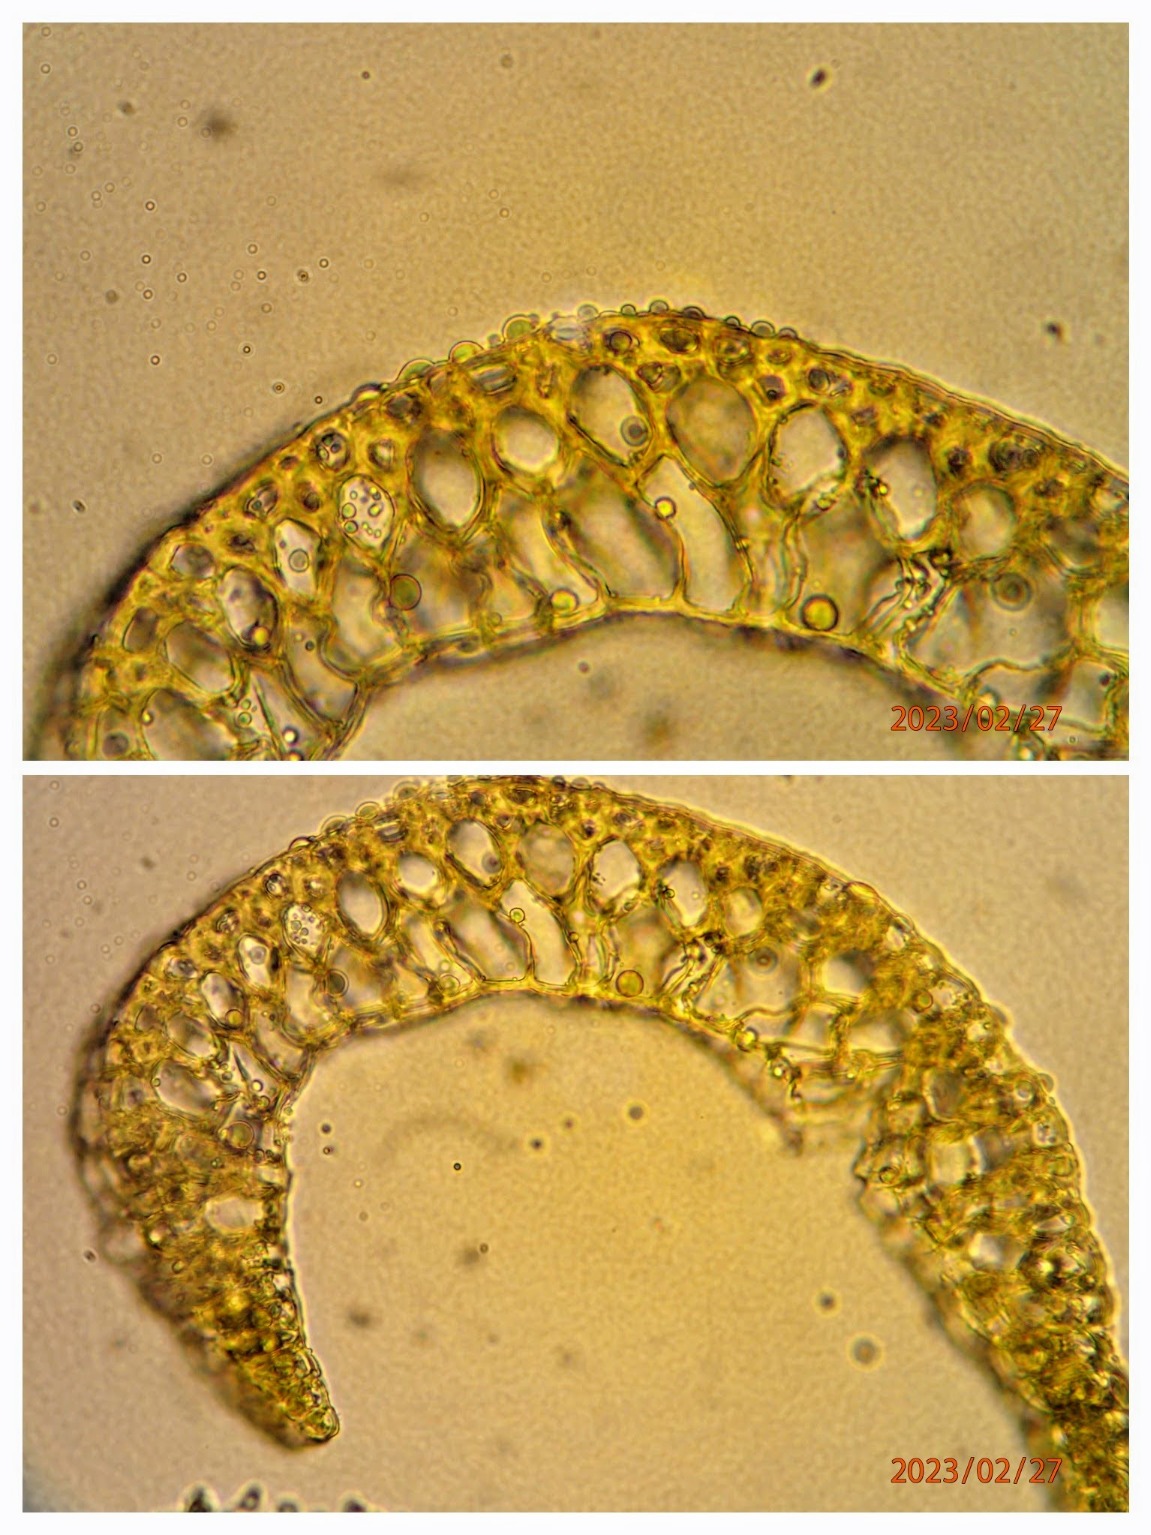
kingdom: Plantae
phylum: Bryophyta
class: Bryopsida
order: Dicranales
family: Leucobryaceae
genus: Campylopus
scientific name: Campylopus pyriformis
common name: Almindelig bredribbe
